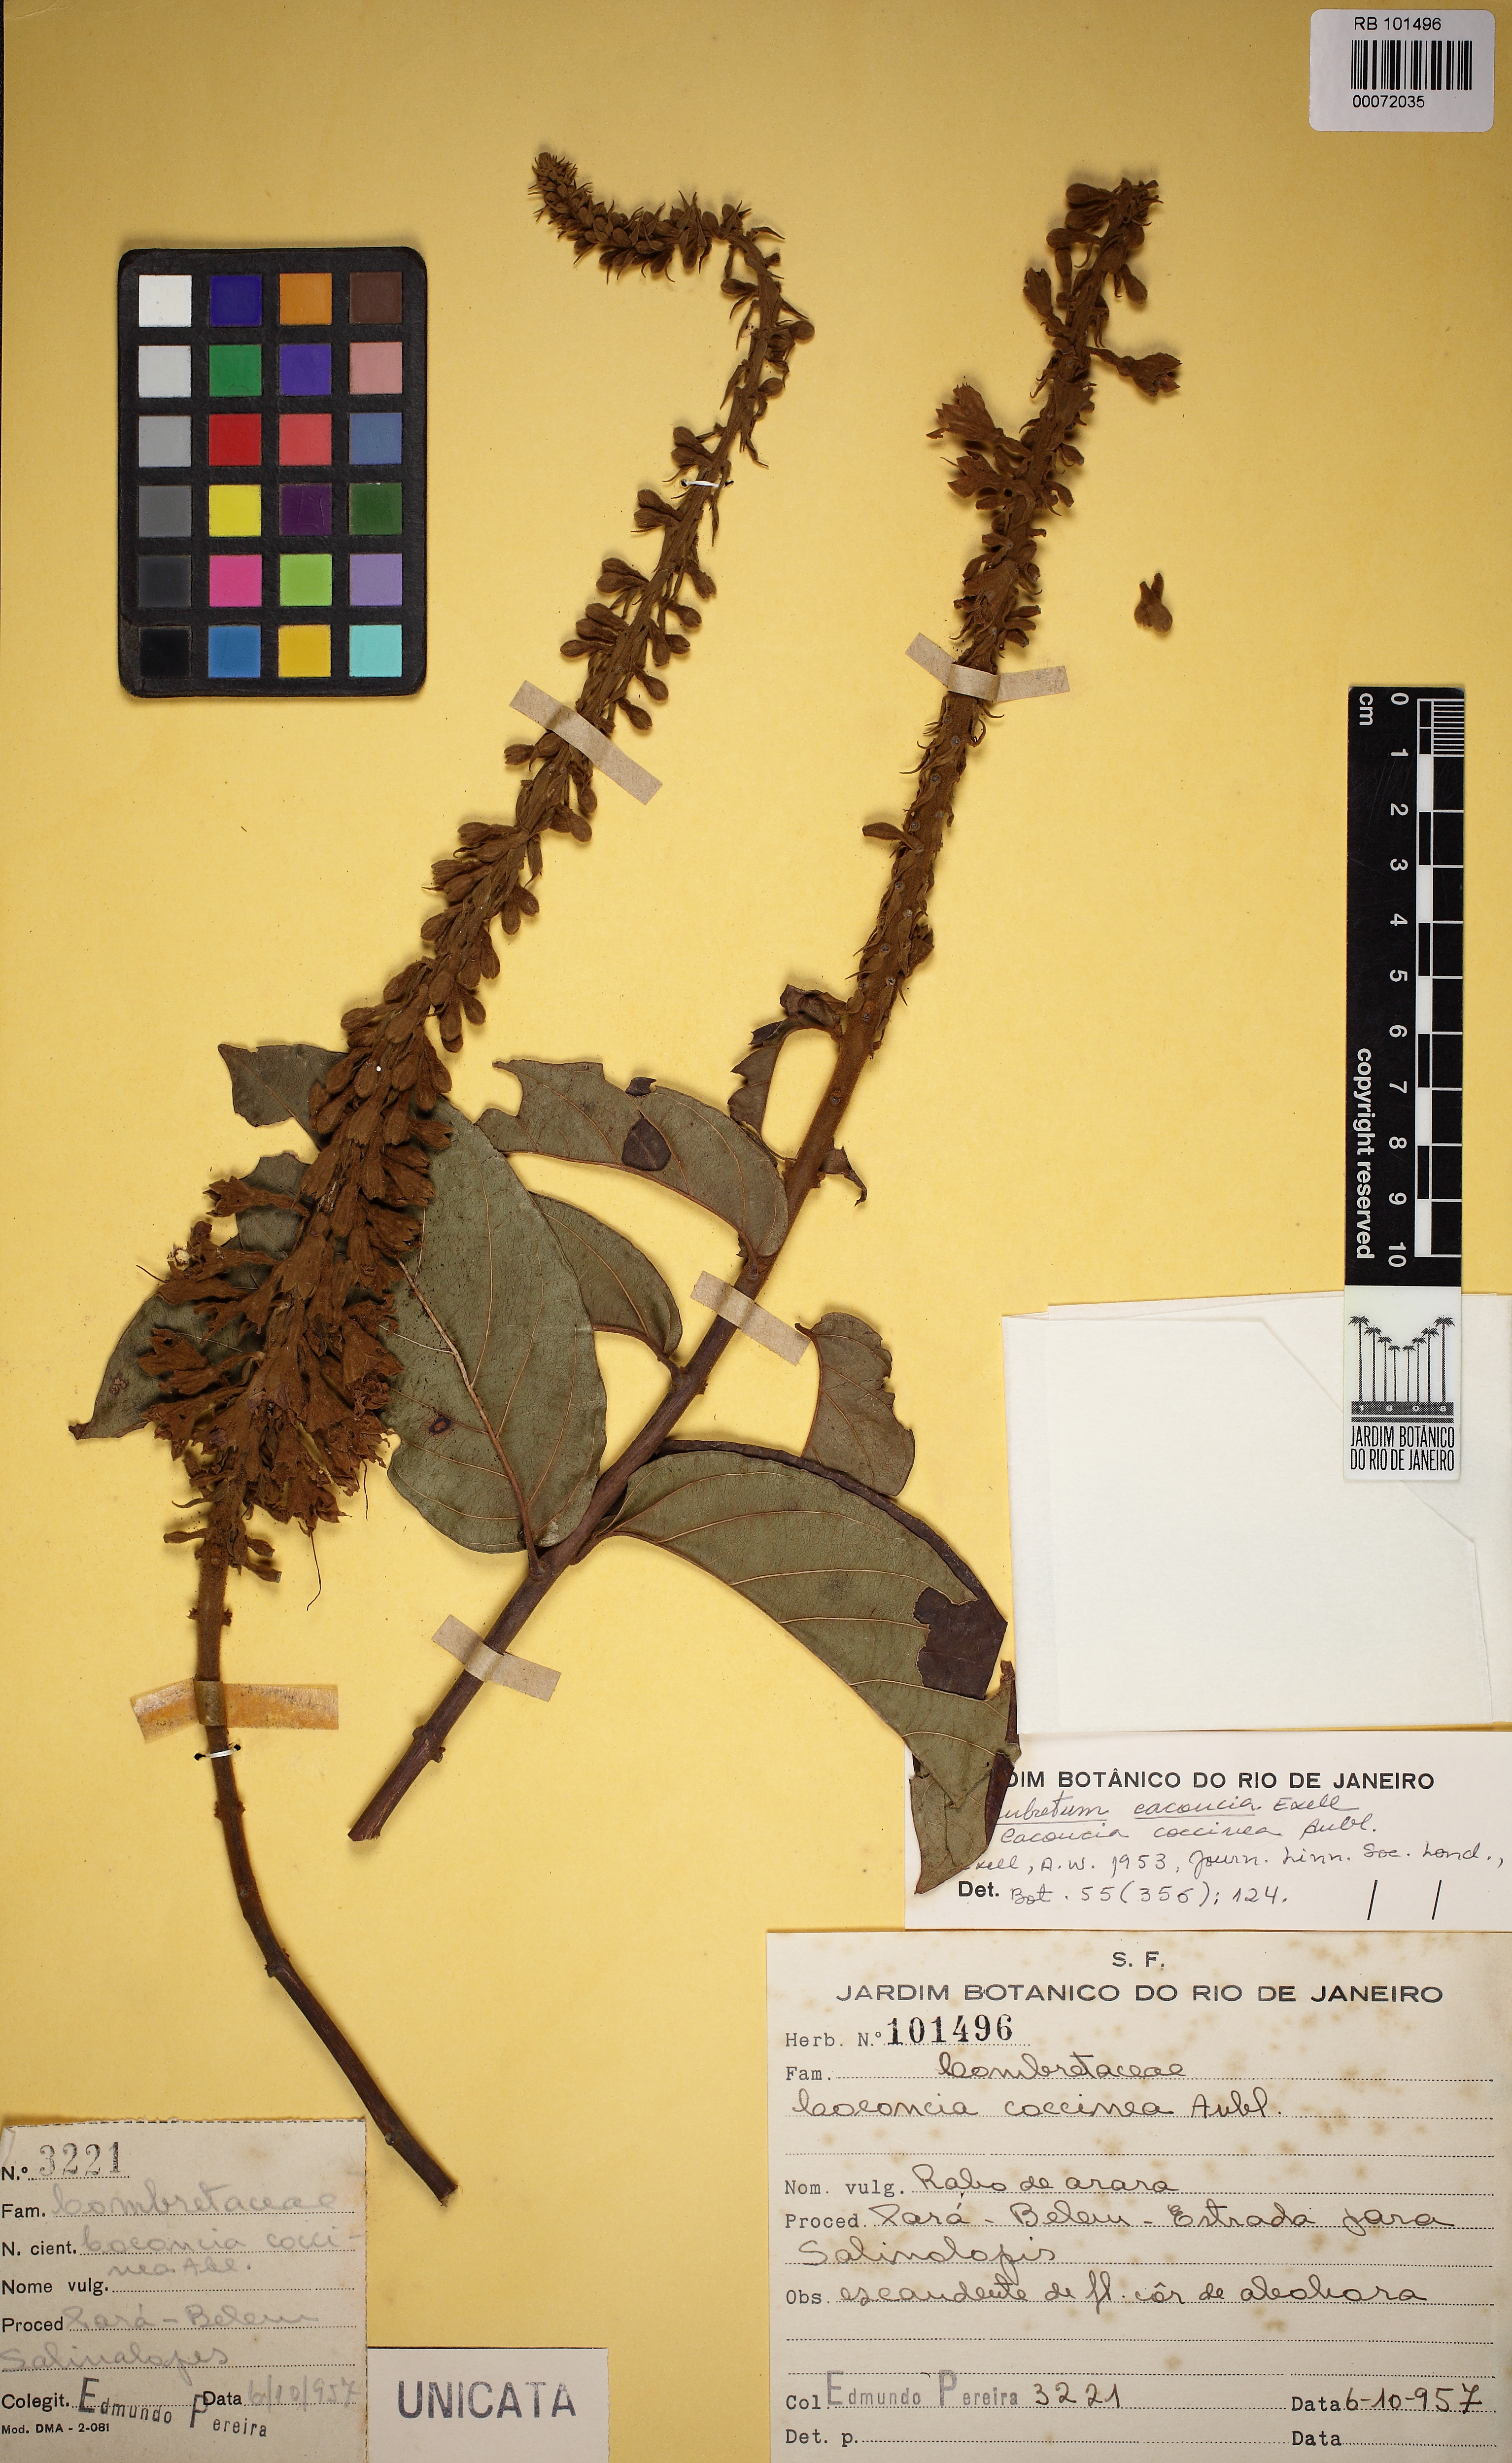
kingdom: Plantae
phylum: Tracheophyta
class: Magnoliopsida
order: Myrtales
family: Combretaceae
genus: Combretum
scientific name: Combretum cacoucia
